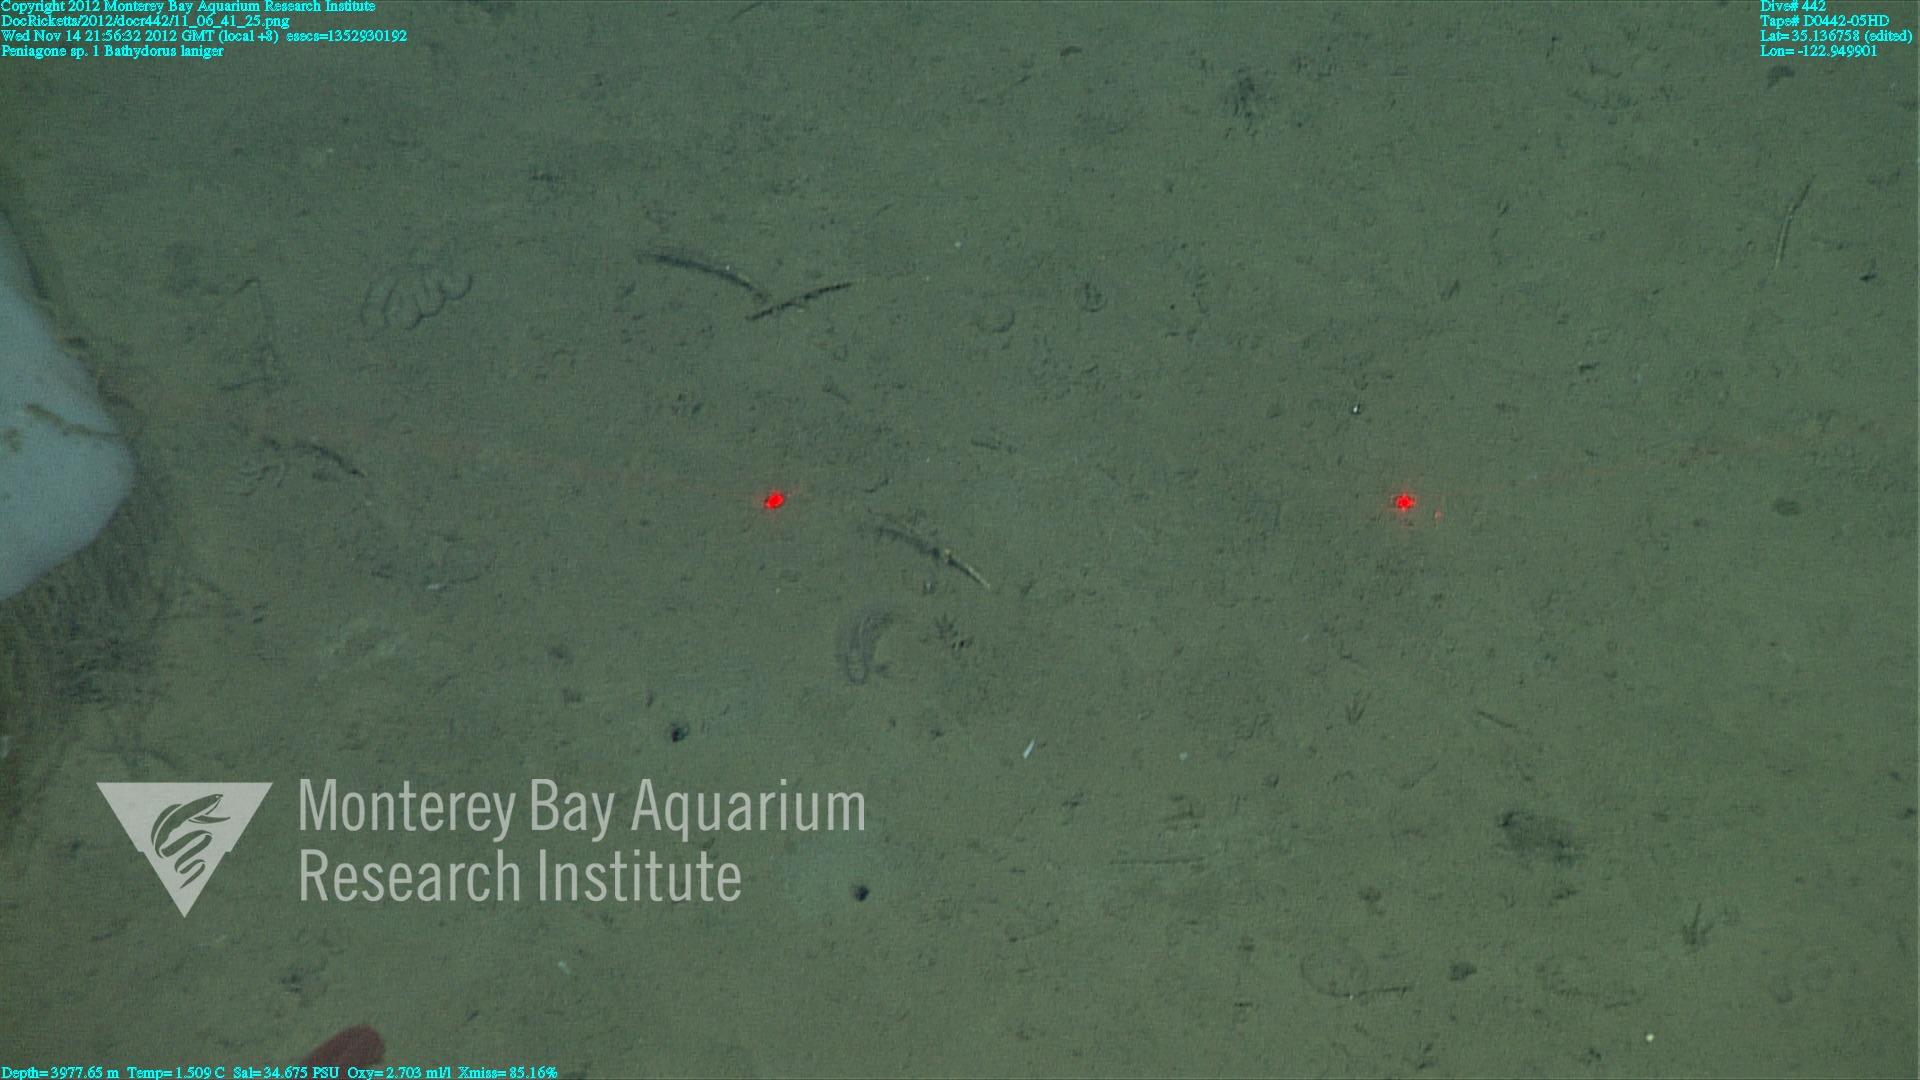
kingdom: Animalia
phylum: Porifera
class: Hexactinellida
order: Lyssacinosida
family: Rossellidae
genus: Bathydorus
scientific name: Bathydorus laniger
